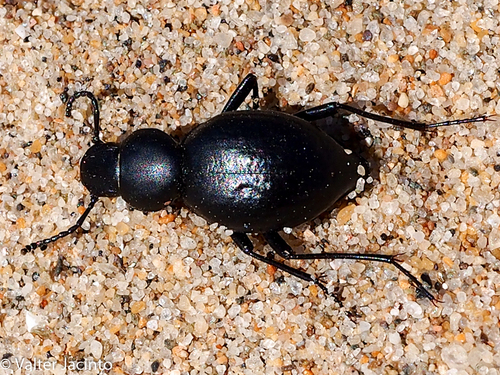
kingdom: Animalia
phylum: Arthropoda
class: Insecta
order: Coleoptera
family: Tenebrionidae
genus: Tentyria
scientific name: Tentyria
